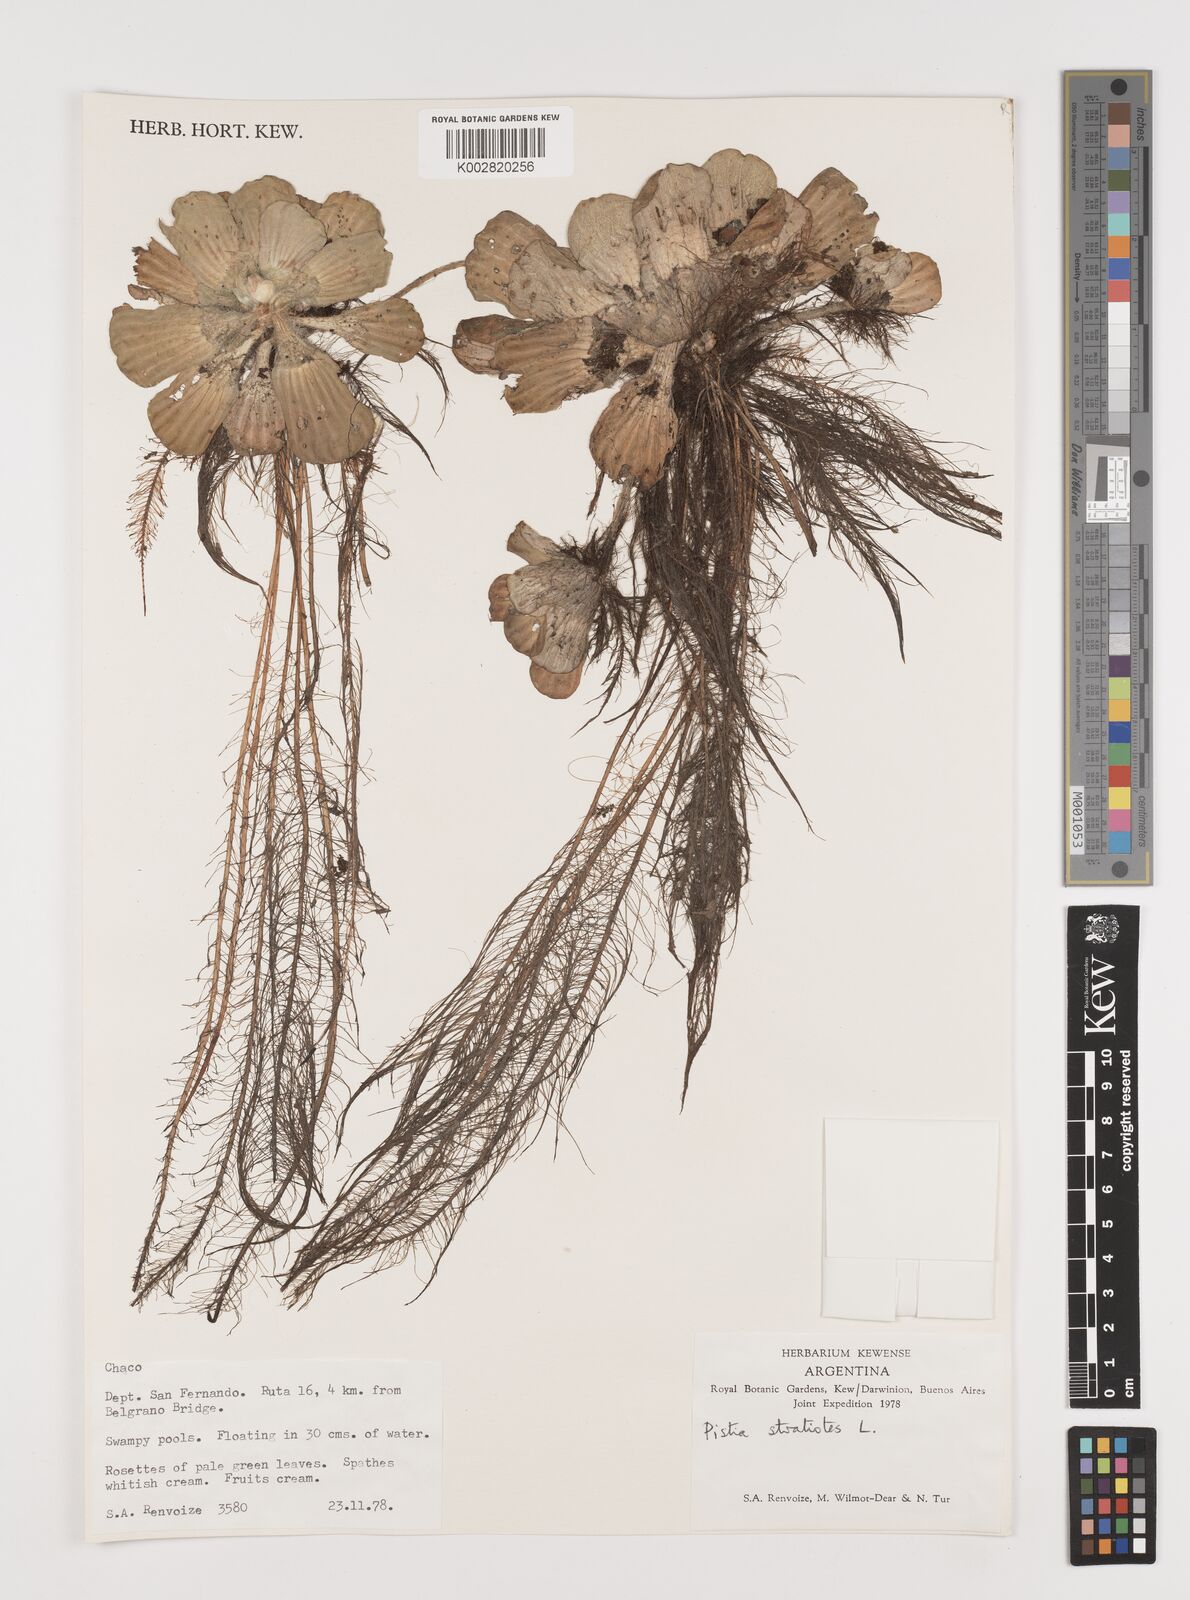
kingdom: Plantae
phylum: Tracheophyta
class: Liliopsida
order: Alismatales
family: Araceae
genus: Pistia
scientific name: Pistia stratiotes
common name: Water lettuce
